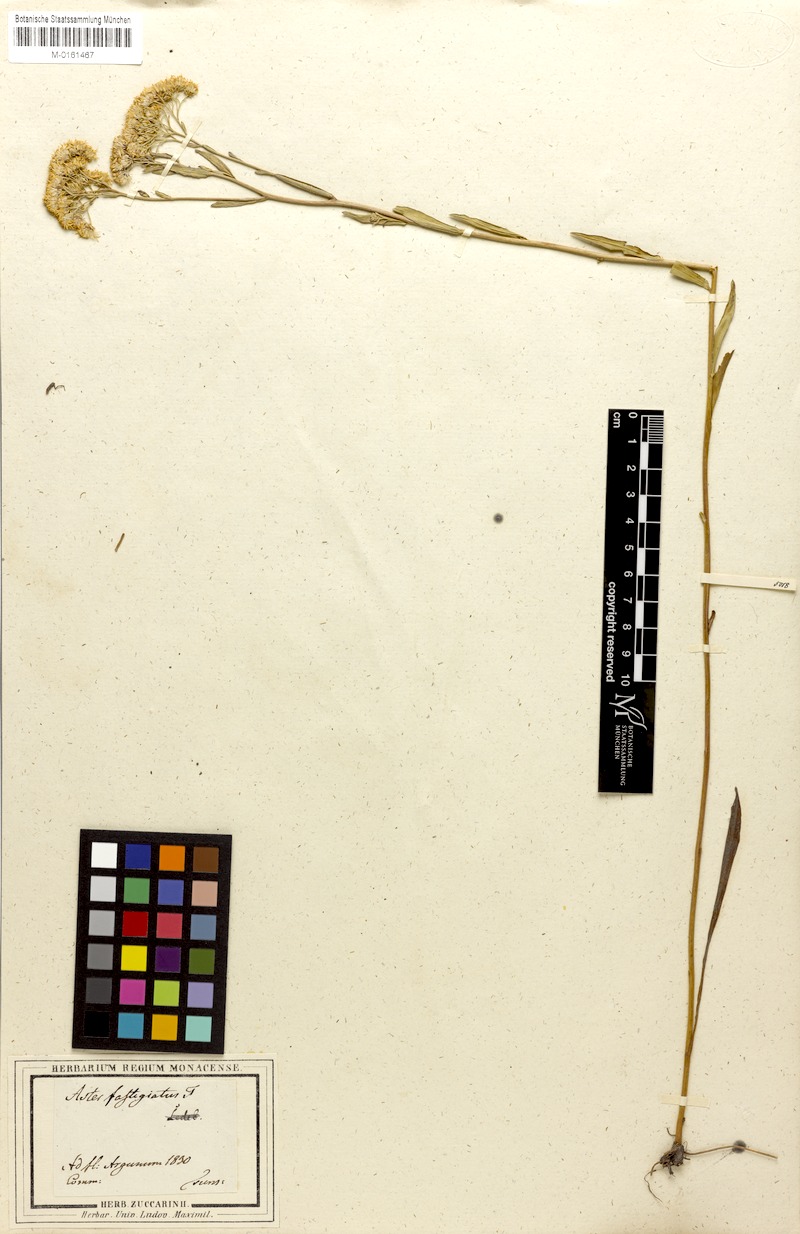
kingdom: Plantae
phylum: Tracheophyta
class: Magnoliopsida
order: Asterales
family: Asteraceae
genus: Turczaninovia
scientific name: Turczaninovia fastigiata
